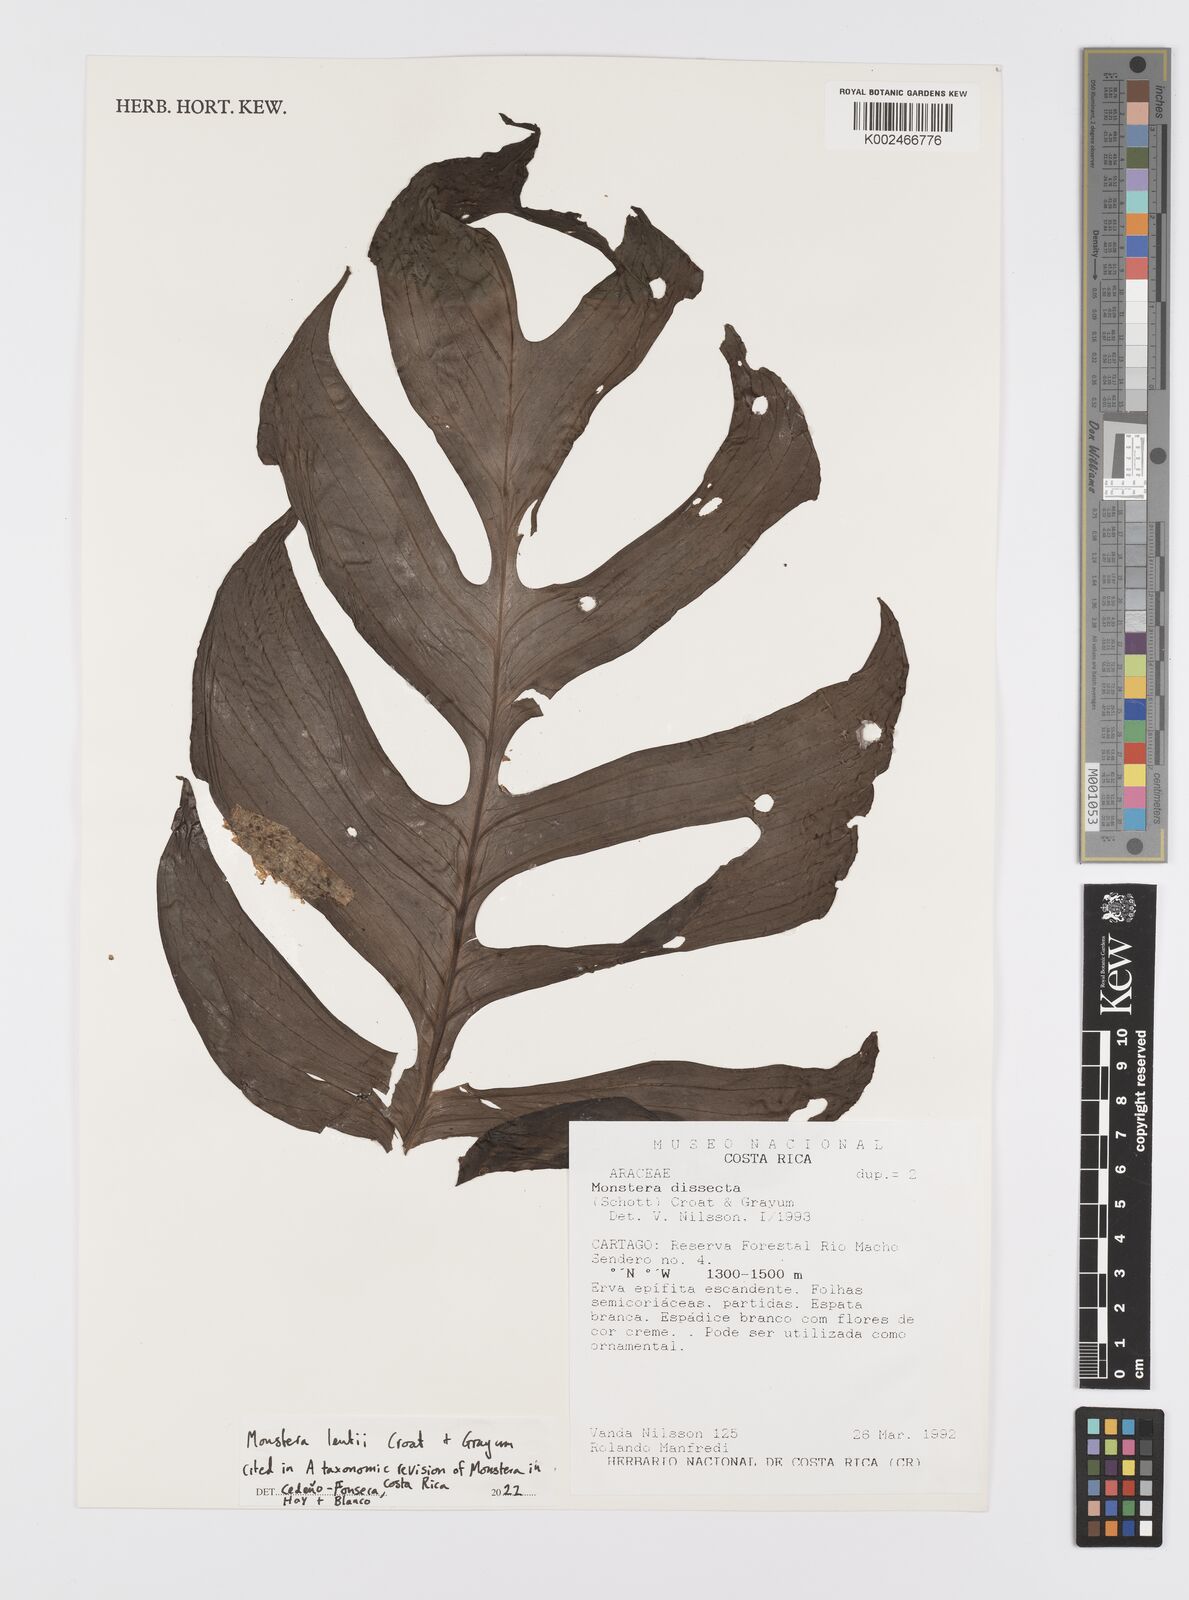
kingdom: Plantae
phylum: Tracheophyta
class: Liliopsida
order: Alismatales
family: Araceae
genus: Monstera
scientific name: Monstera lentii
